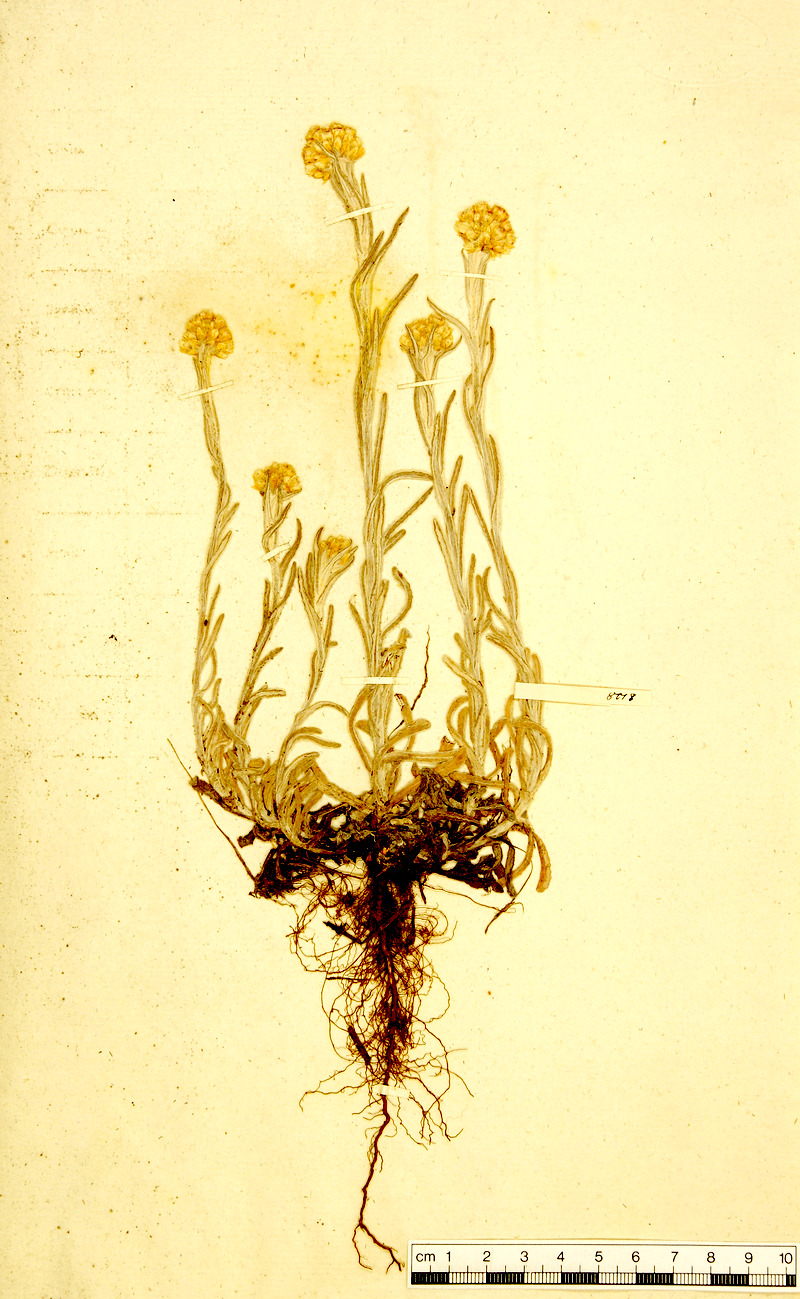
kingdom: Plantae
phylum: Tracheophyta
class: Magnoliopsida
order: Asterales
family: Asteraceae
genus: Helichrysum
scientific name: Helichrysum luteoalbum
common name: Daisy
